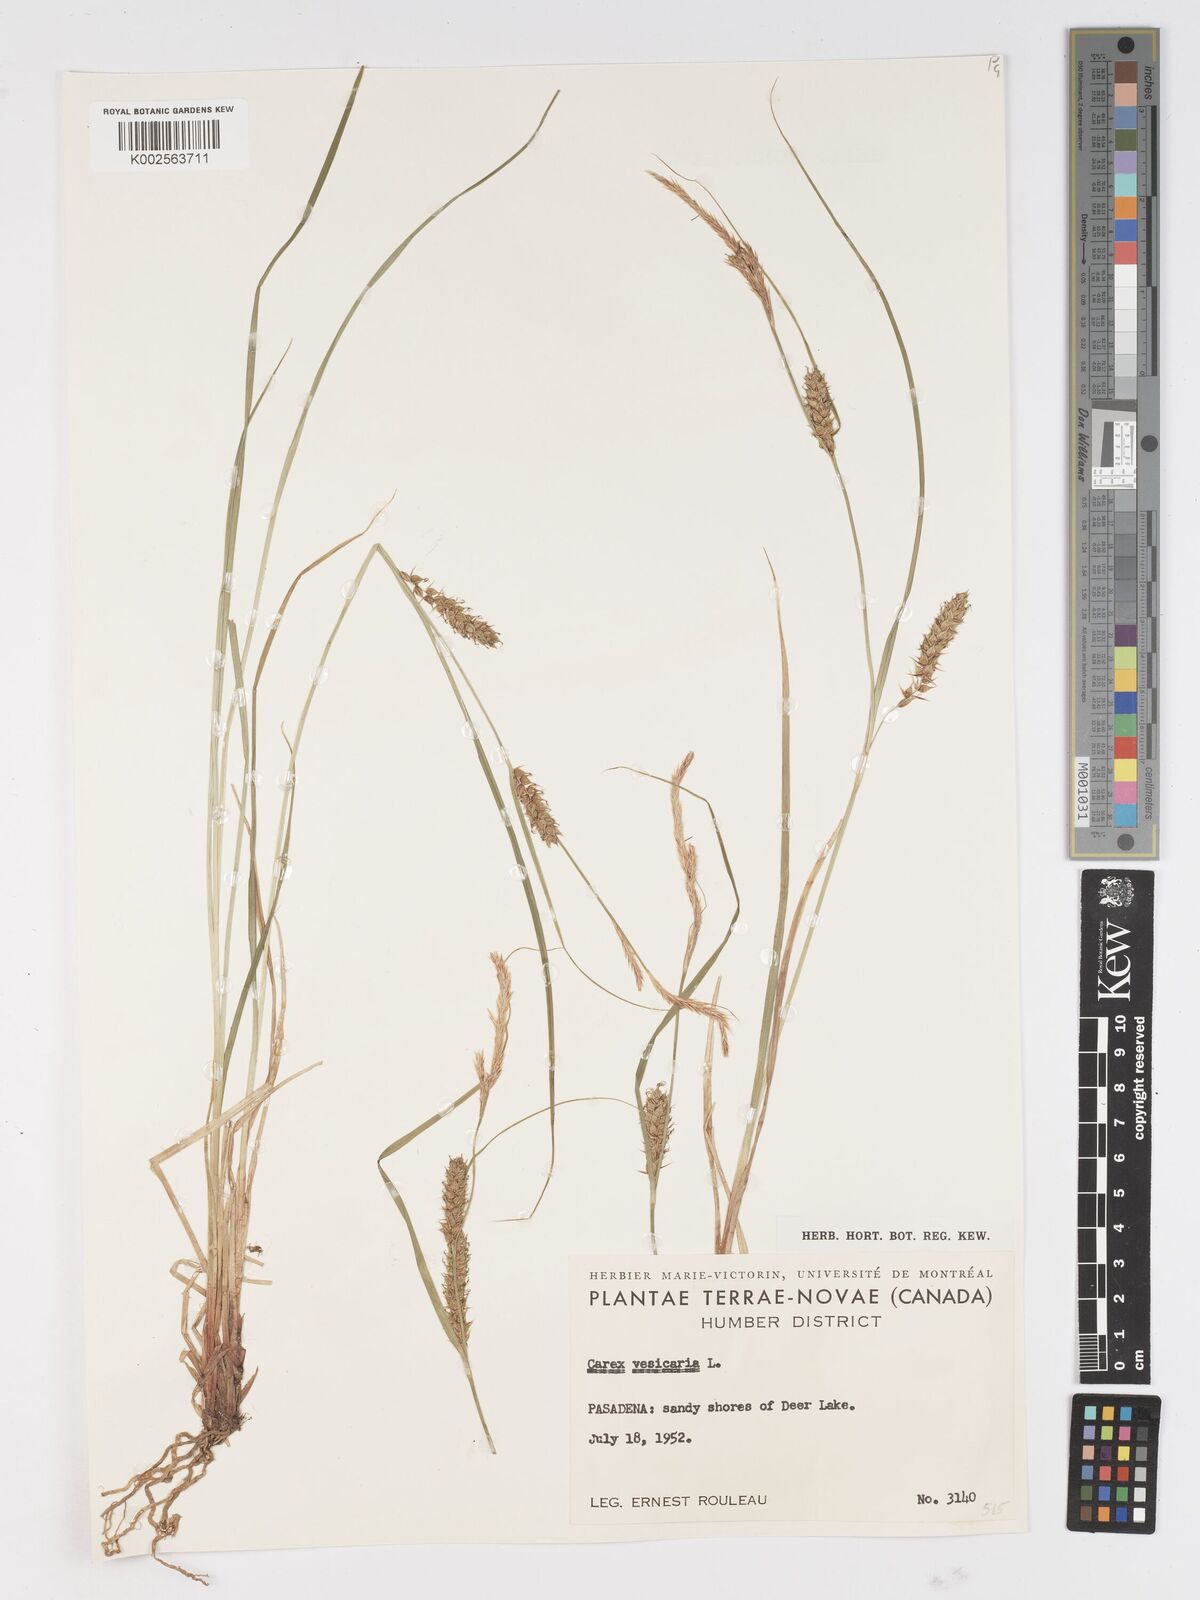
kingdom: Plantae
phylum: Tracheophyta
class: Liliopsida
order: Poales
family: Cyperaceae
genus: Carex
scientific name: Carex vesicaria
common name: Bladder-sedge
